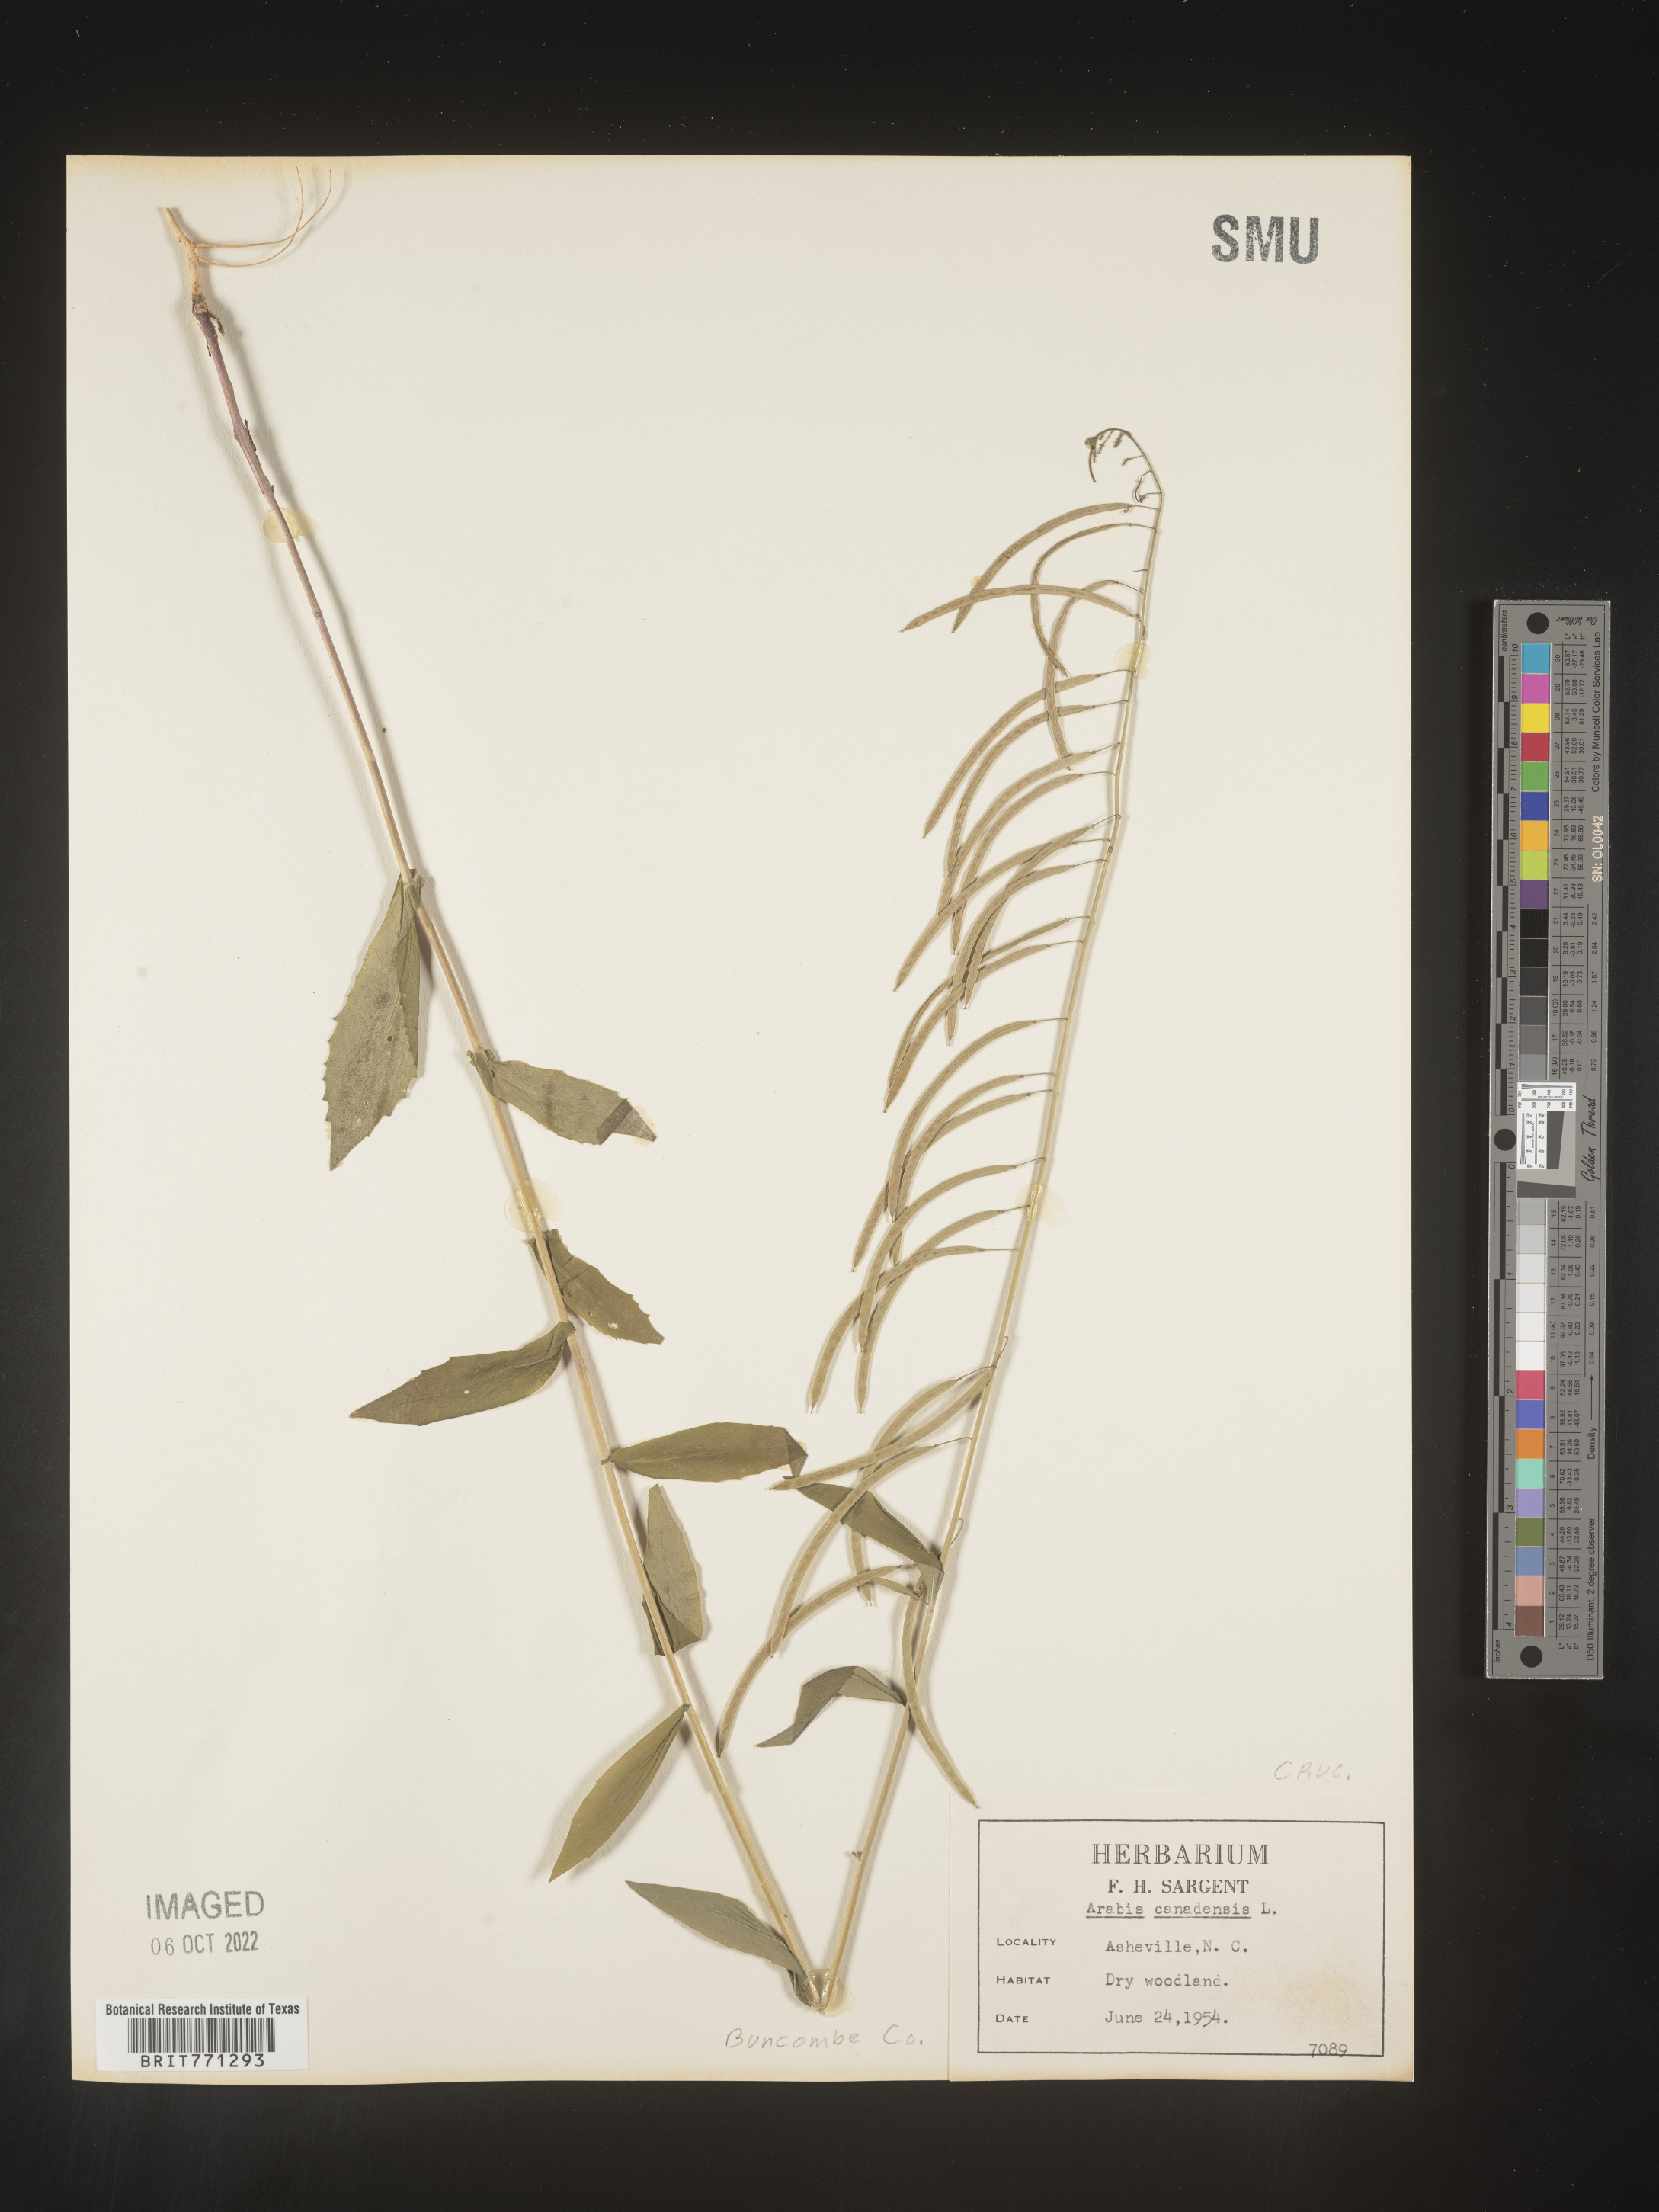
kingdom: Plantae
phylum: Tracheophyta
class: Magnoliopsida
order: Brassicales
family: Brassicaceae
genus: Borodinia
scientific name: Borodinia canadensis
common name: Sicklepod
